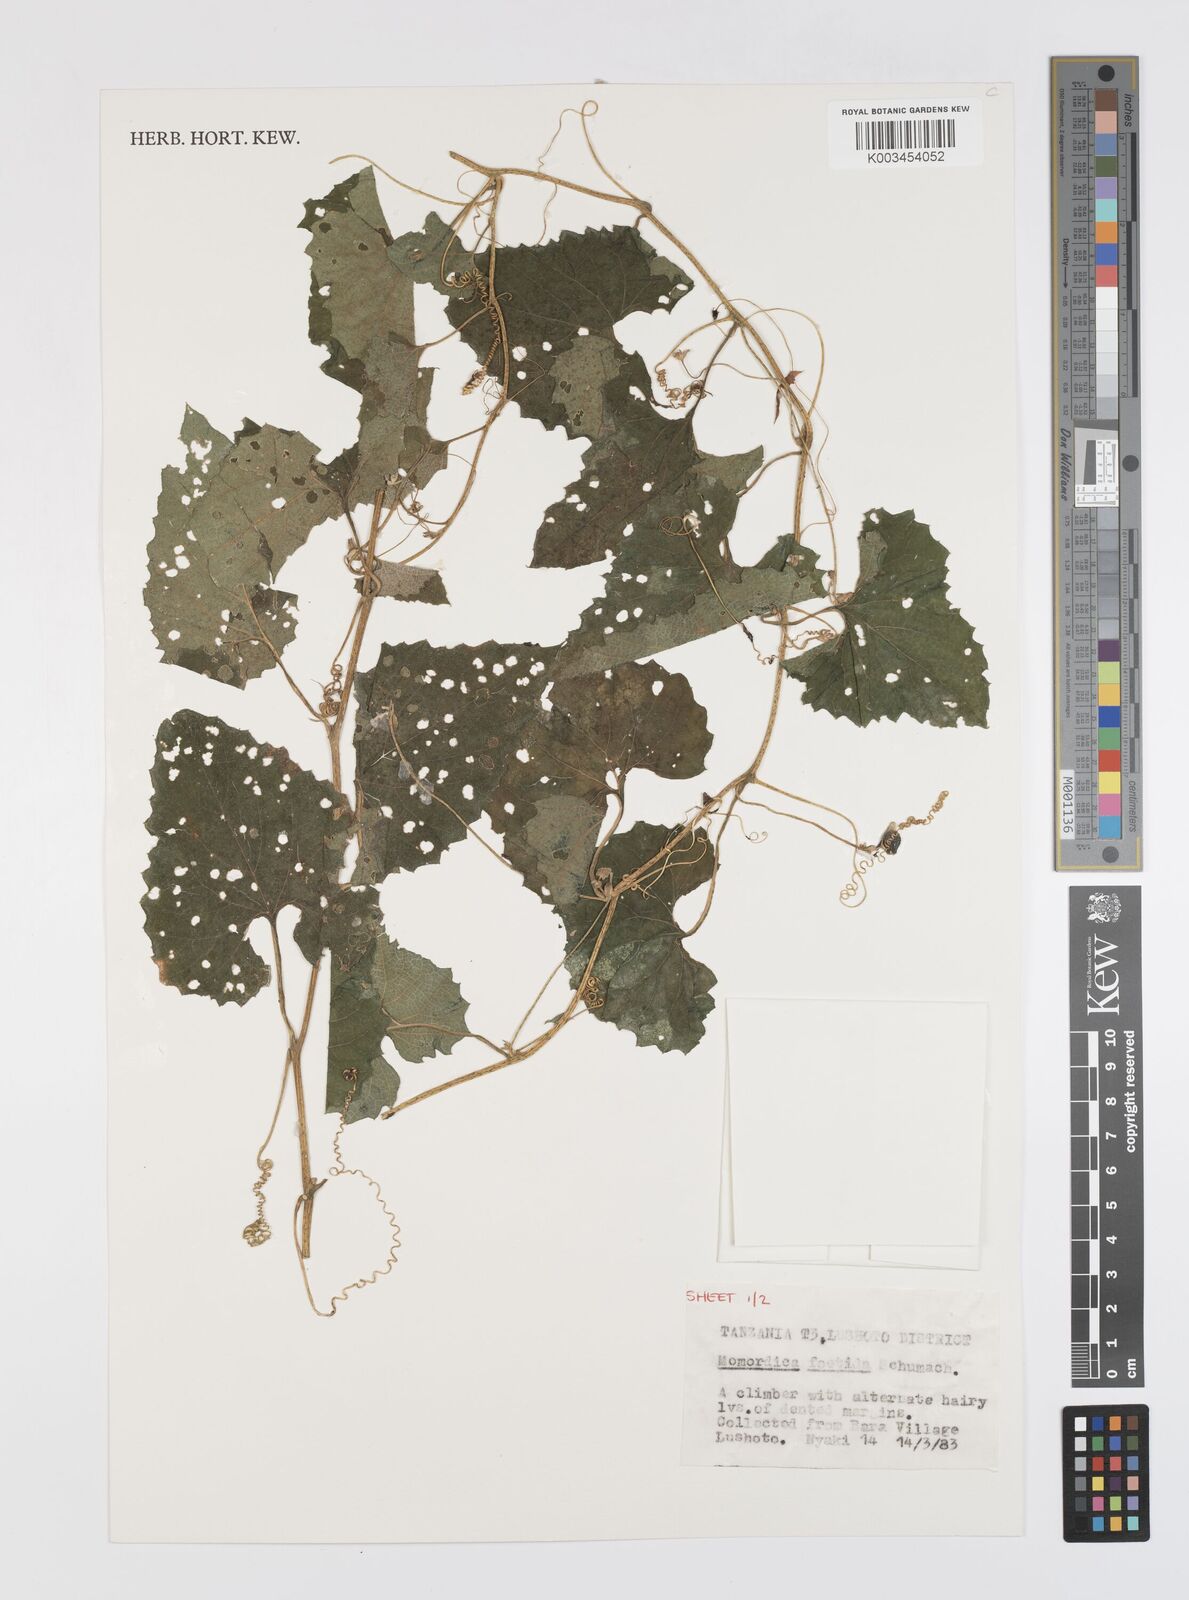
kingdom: Plantae
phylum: Tracheophyta
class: Magnoliopsida
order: Cucurbitales
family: Cucurbitaceae
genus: Momordica
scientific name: Momordica foetida
